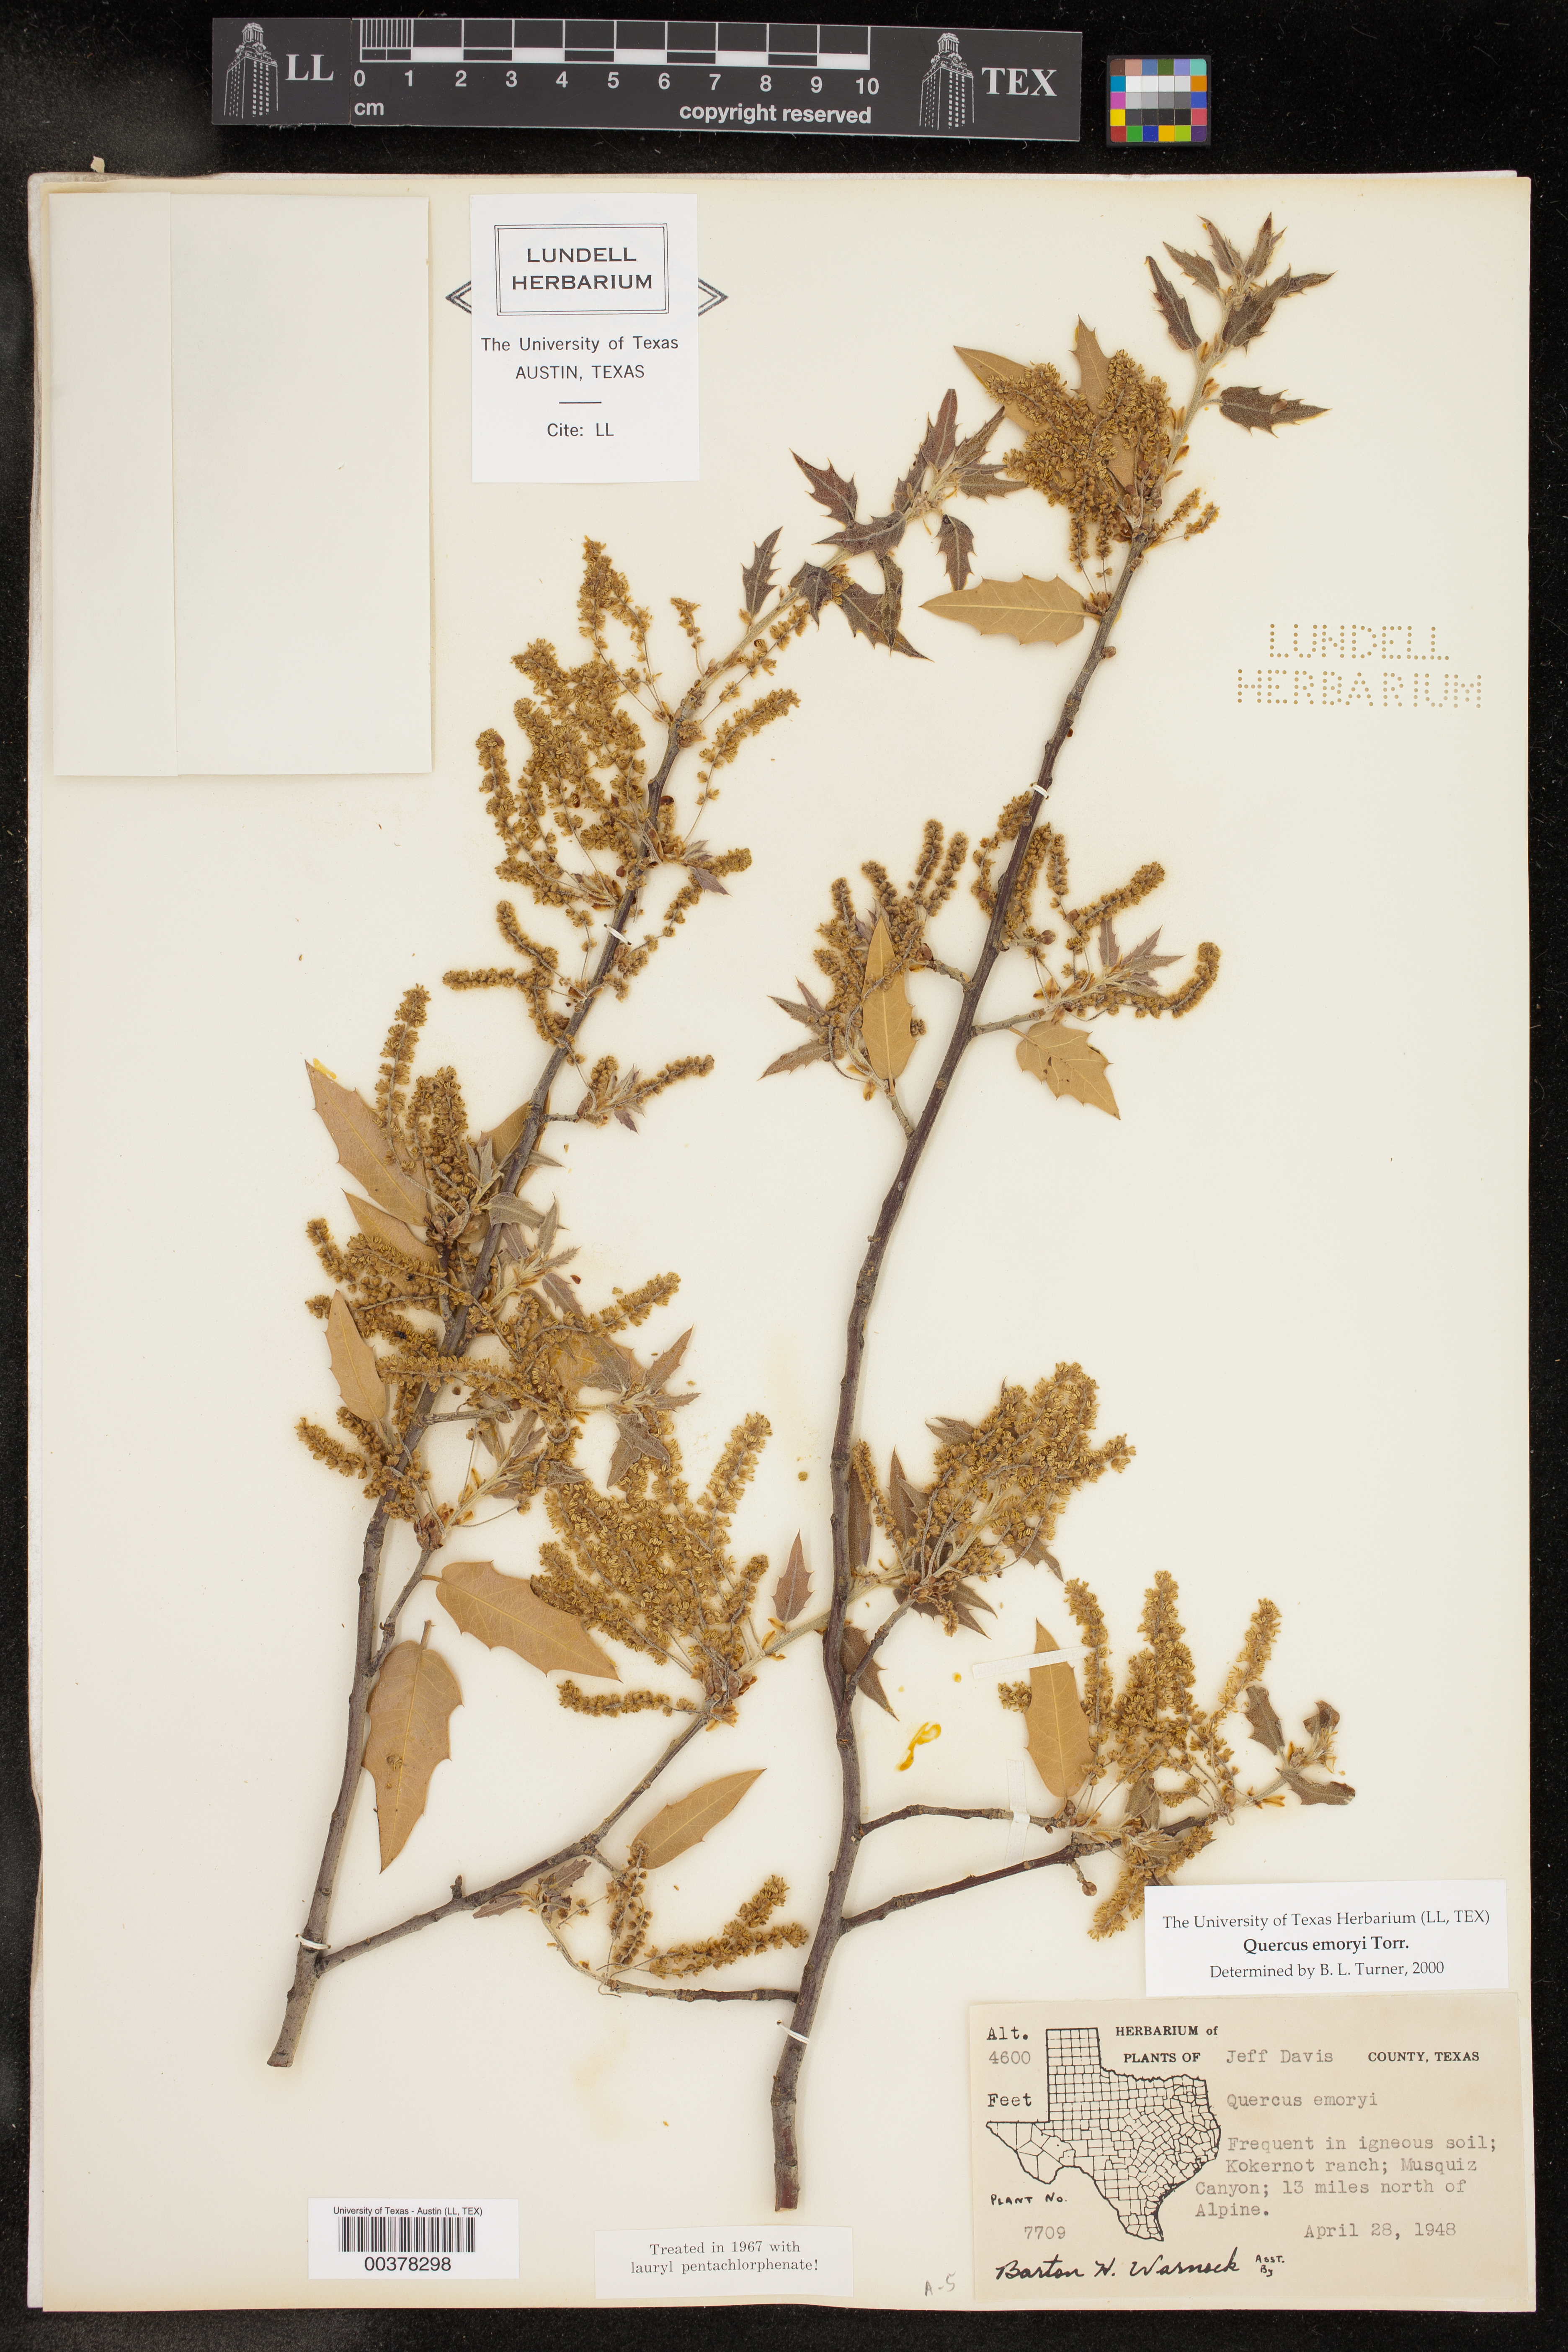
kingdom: Plantae
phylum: Tracheophyta
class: Magnoliopsida
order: Fagales
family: Fagaceae
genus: Quercus
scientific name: Quercus emoryi
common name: Emory oak
